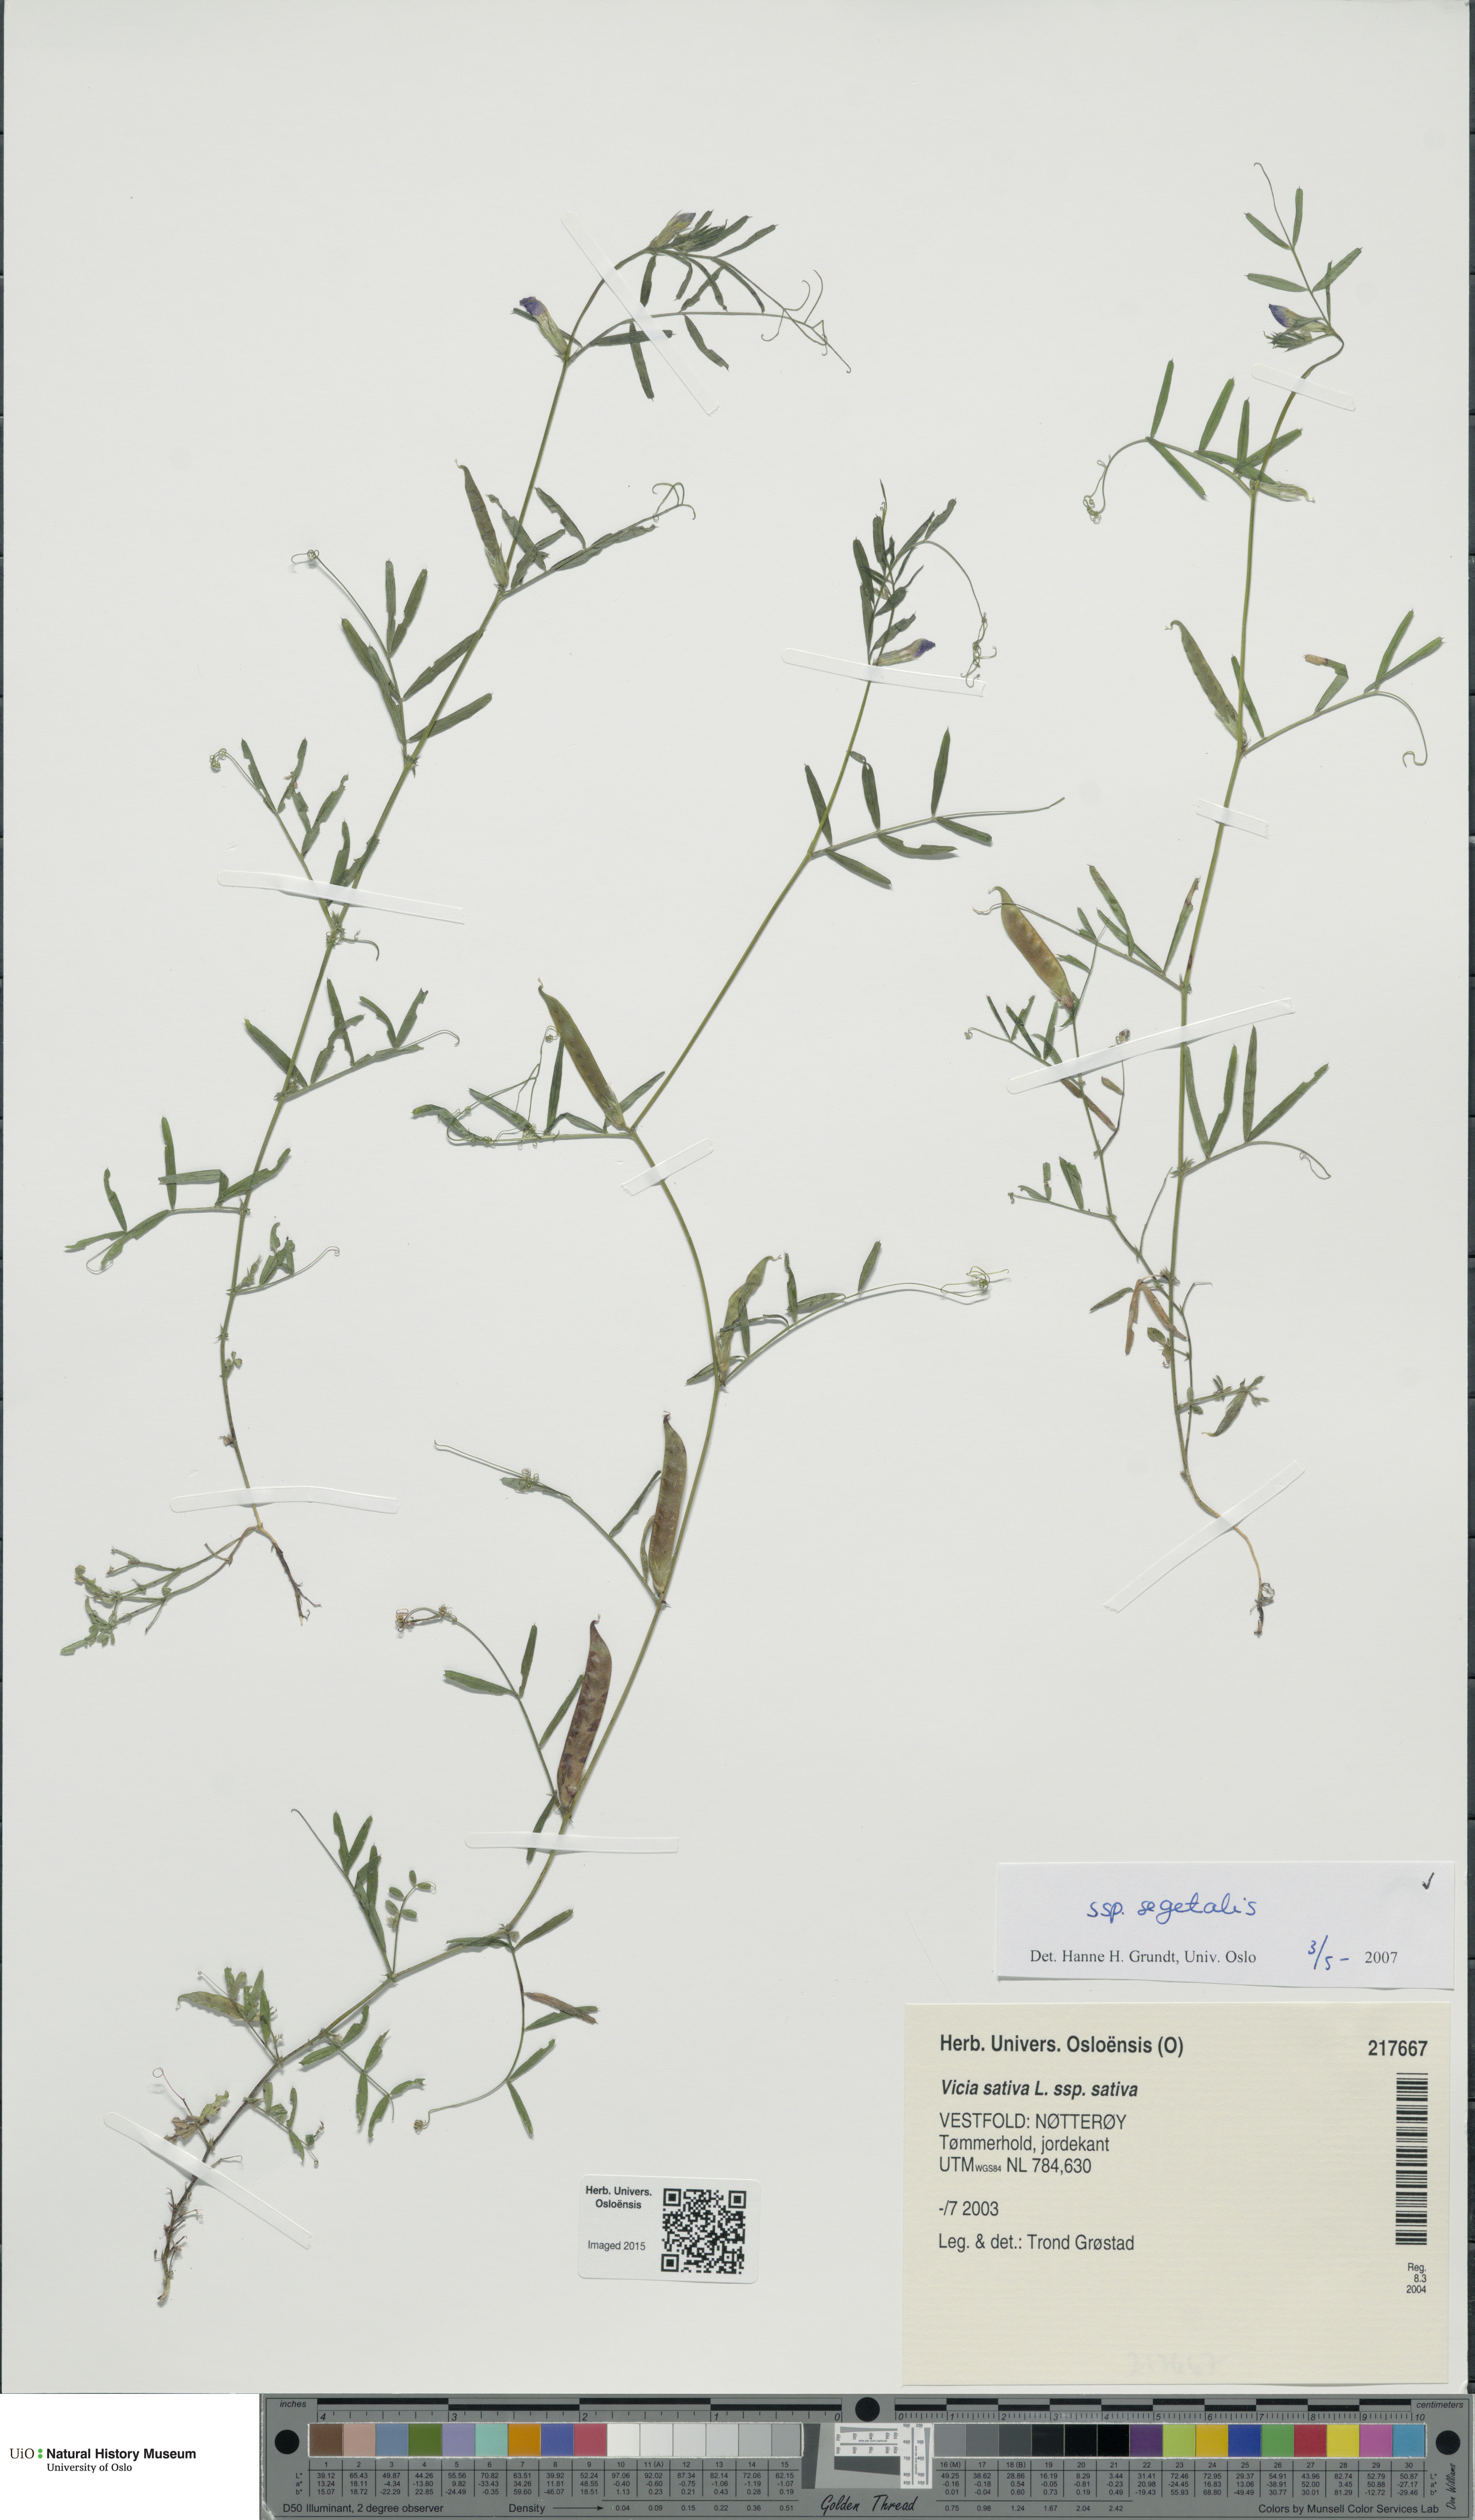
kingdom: Plantae
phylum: Tracheophyta
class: Magnoliopsida
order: Fabales
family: Fabaceae
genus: Vicia
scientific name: Vicia sativa
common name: Garden vetch
